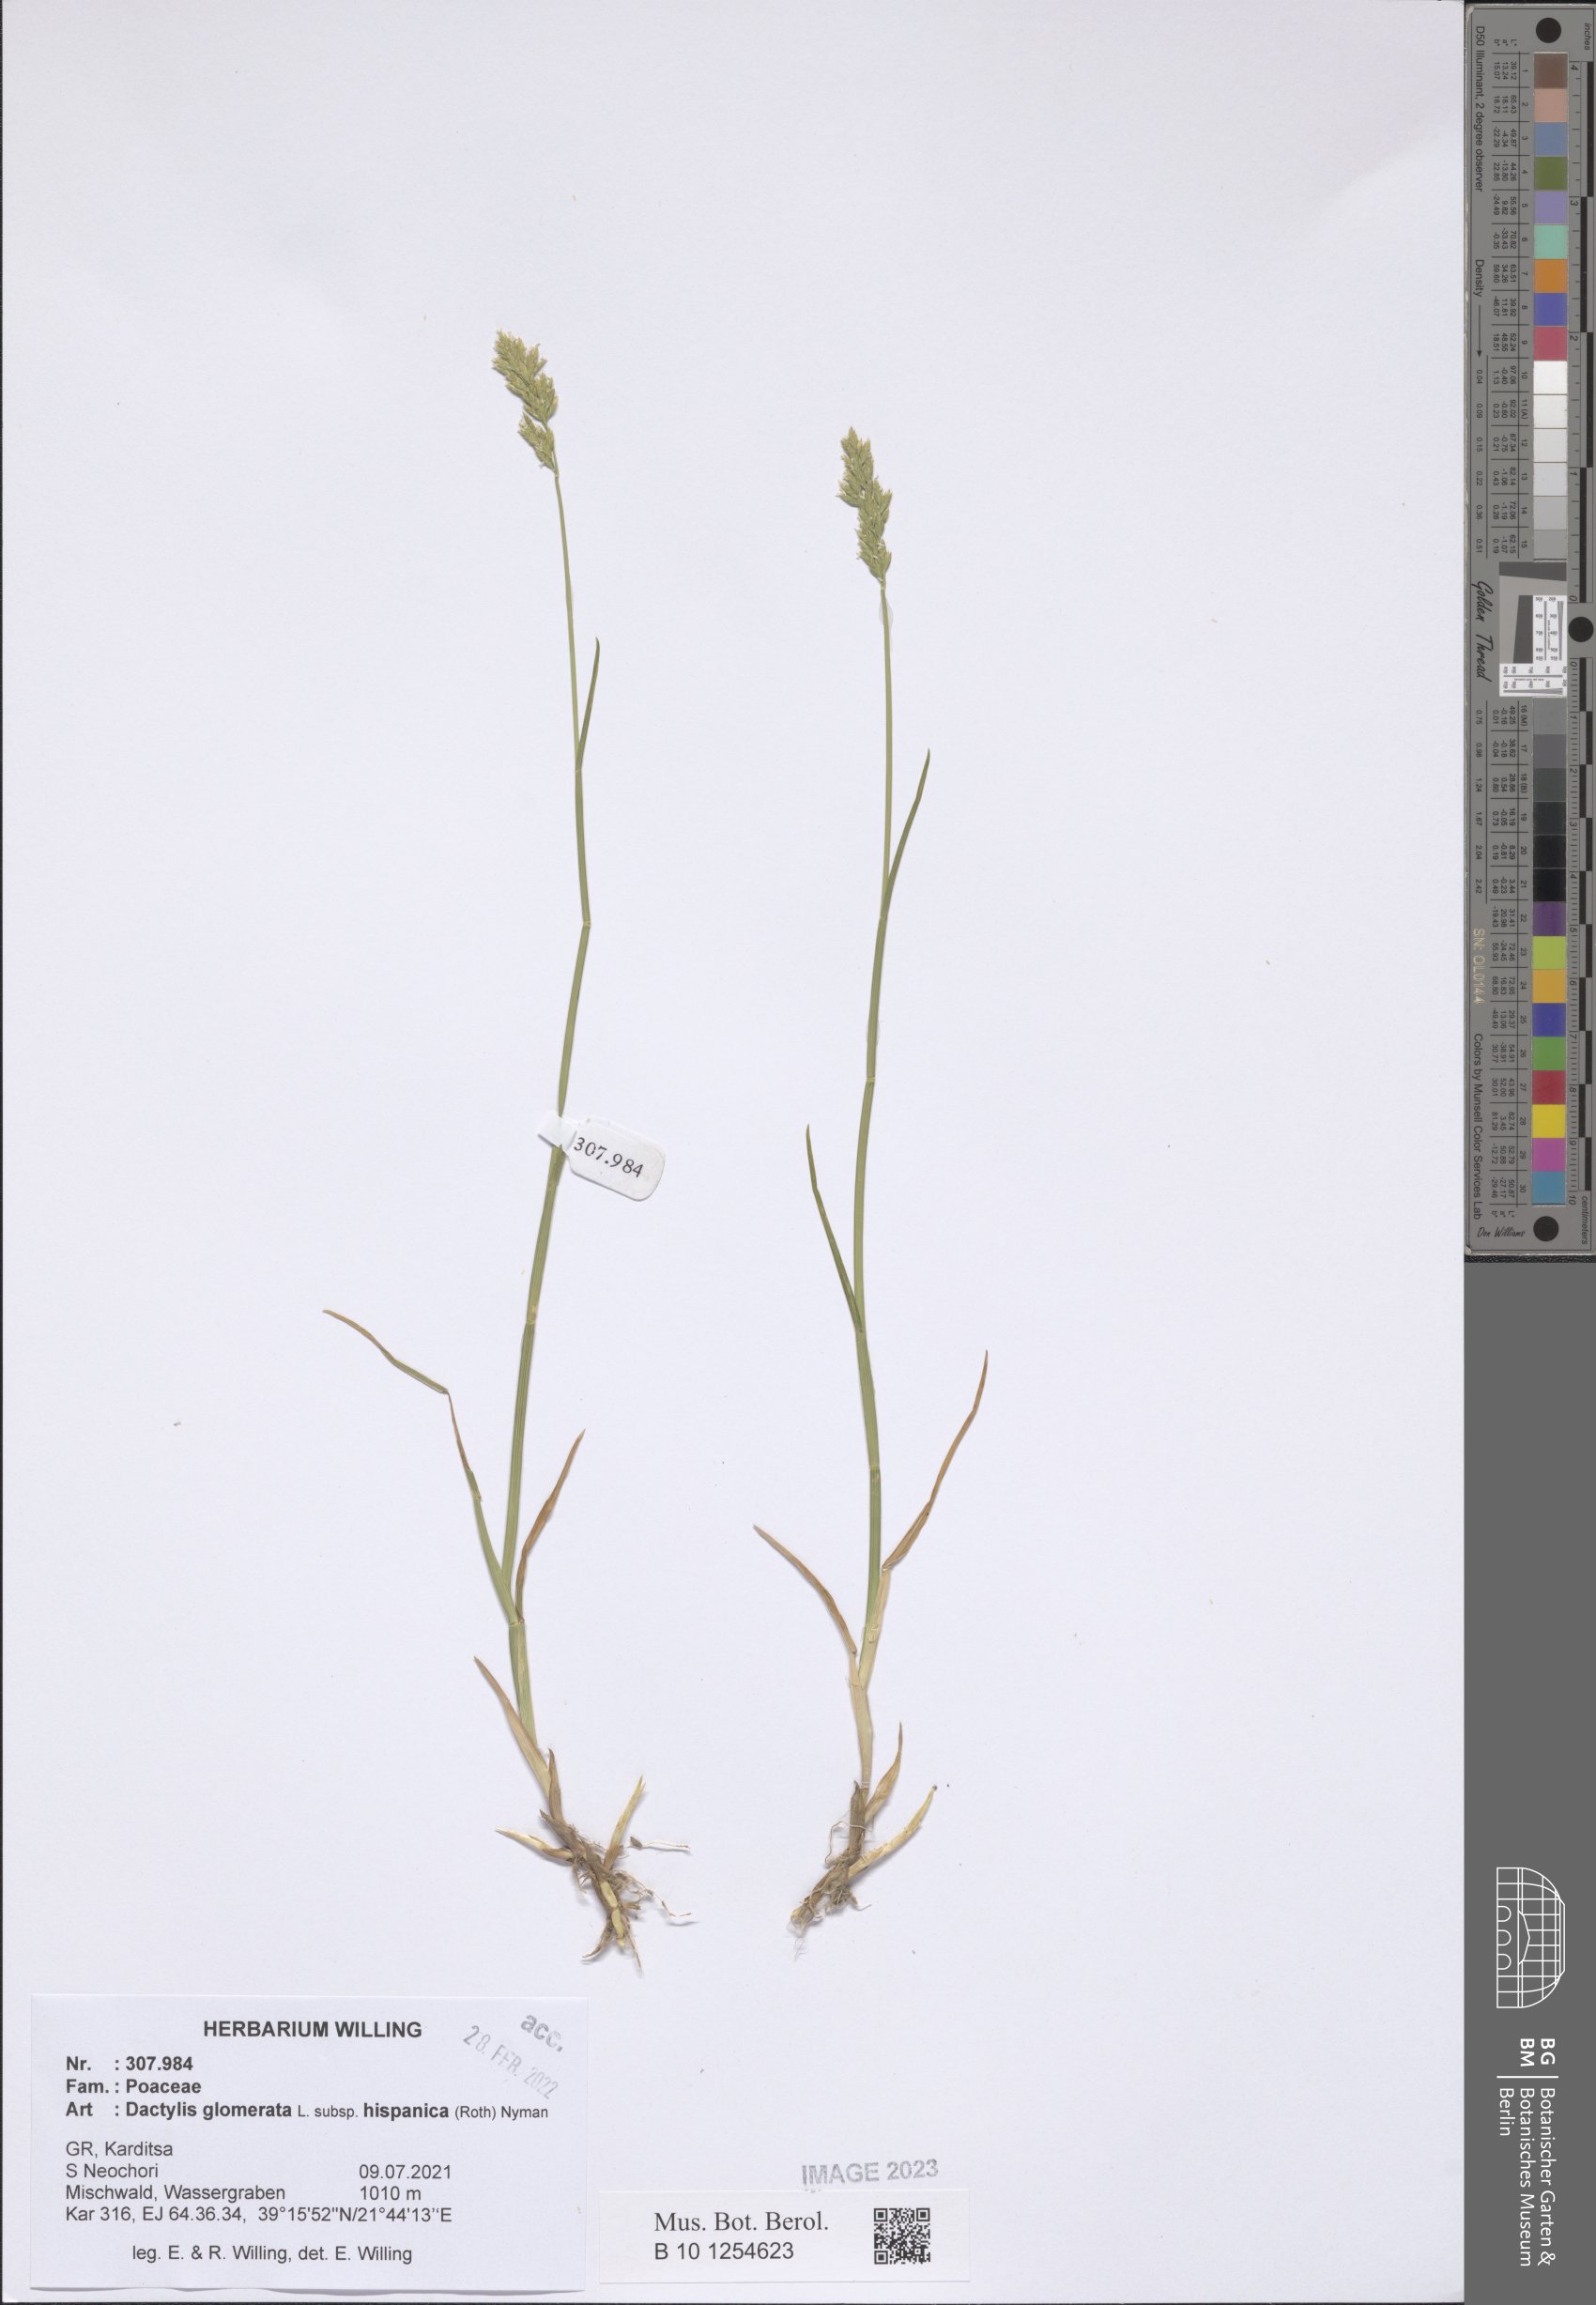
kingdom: Plantae
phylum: Tracheophyta
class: Liliopsida
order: Poales
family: Poaceae
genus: Dactylis
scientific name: Dactylis glomerata
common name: Orchardgrass
